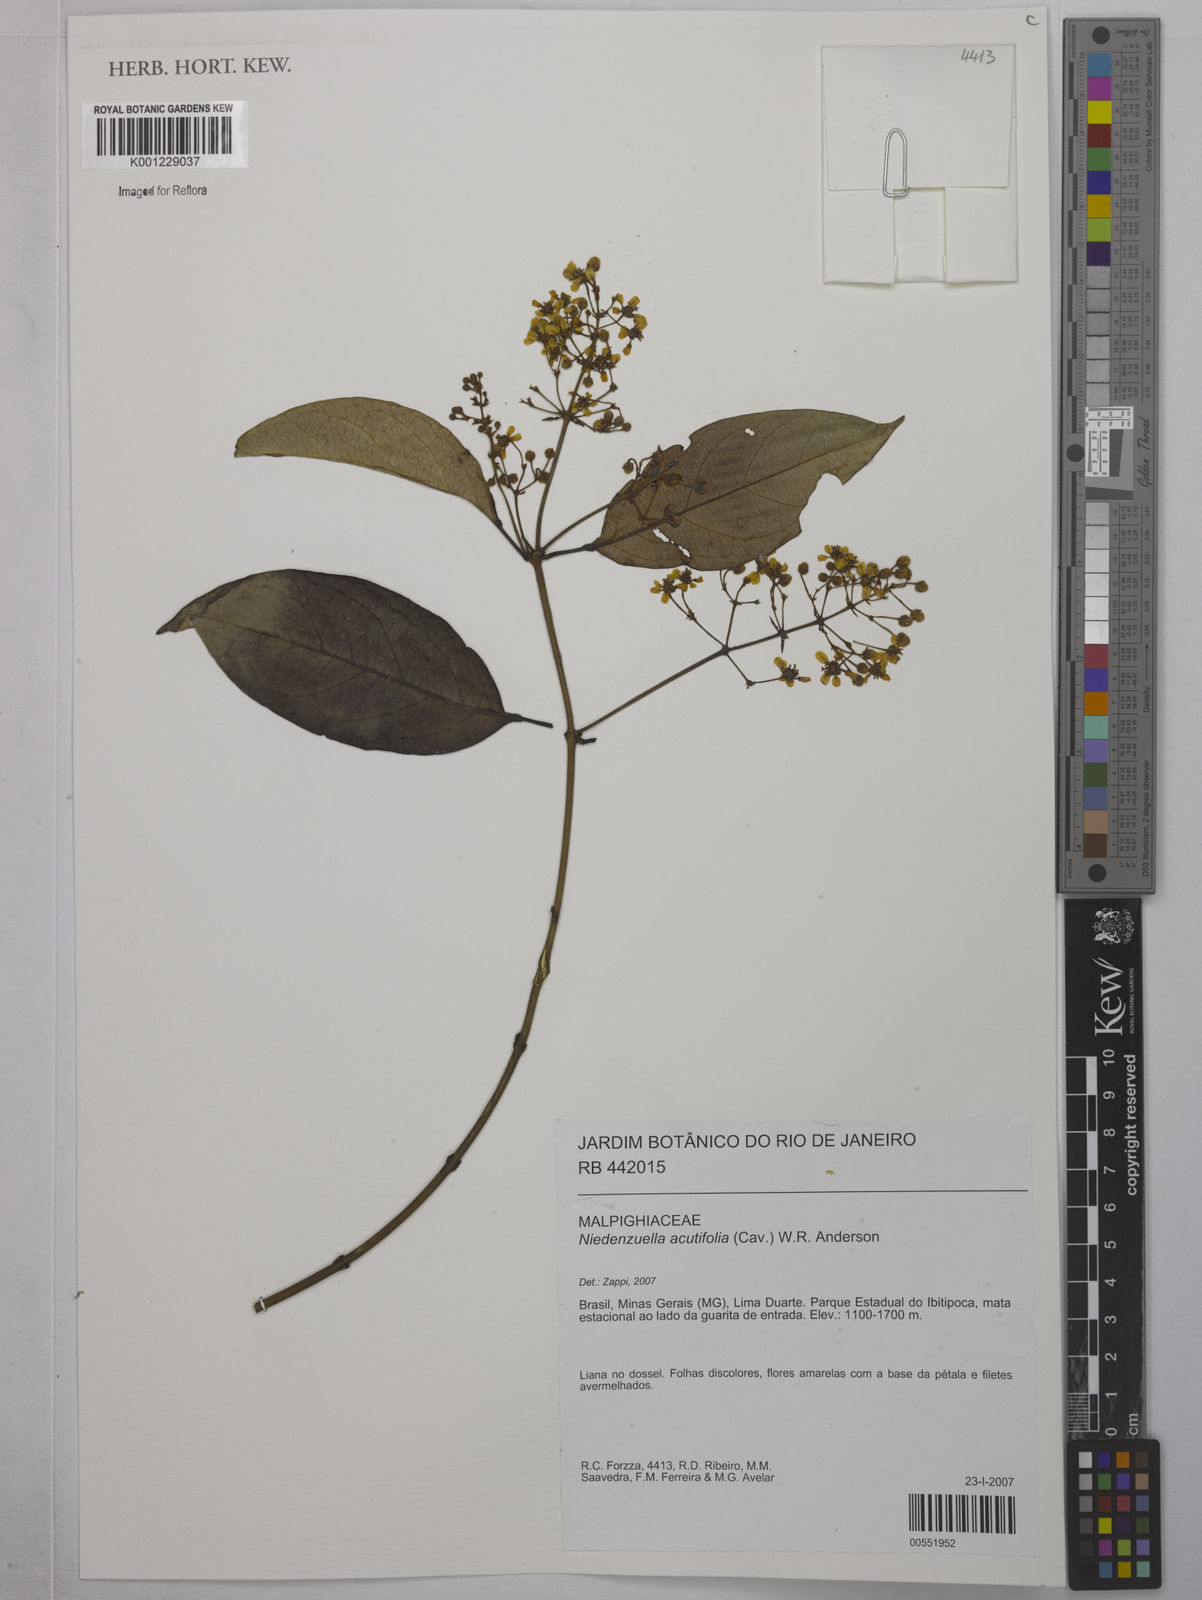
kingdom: Plantae
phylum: Tracheophyta
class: Magnoliopsida
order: Malpighiales
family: Malpighiaceae
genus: Niedenzuella
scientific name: Niedenzuella acutifolia
